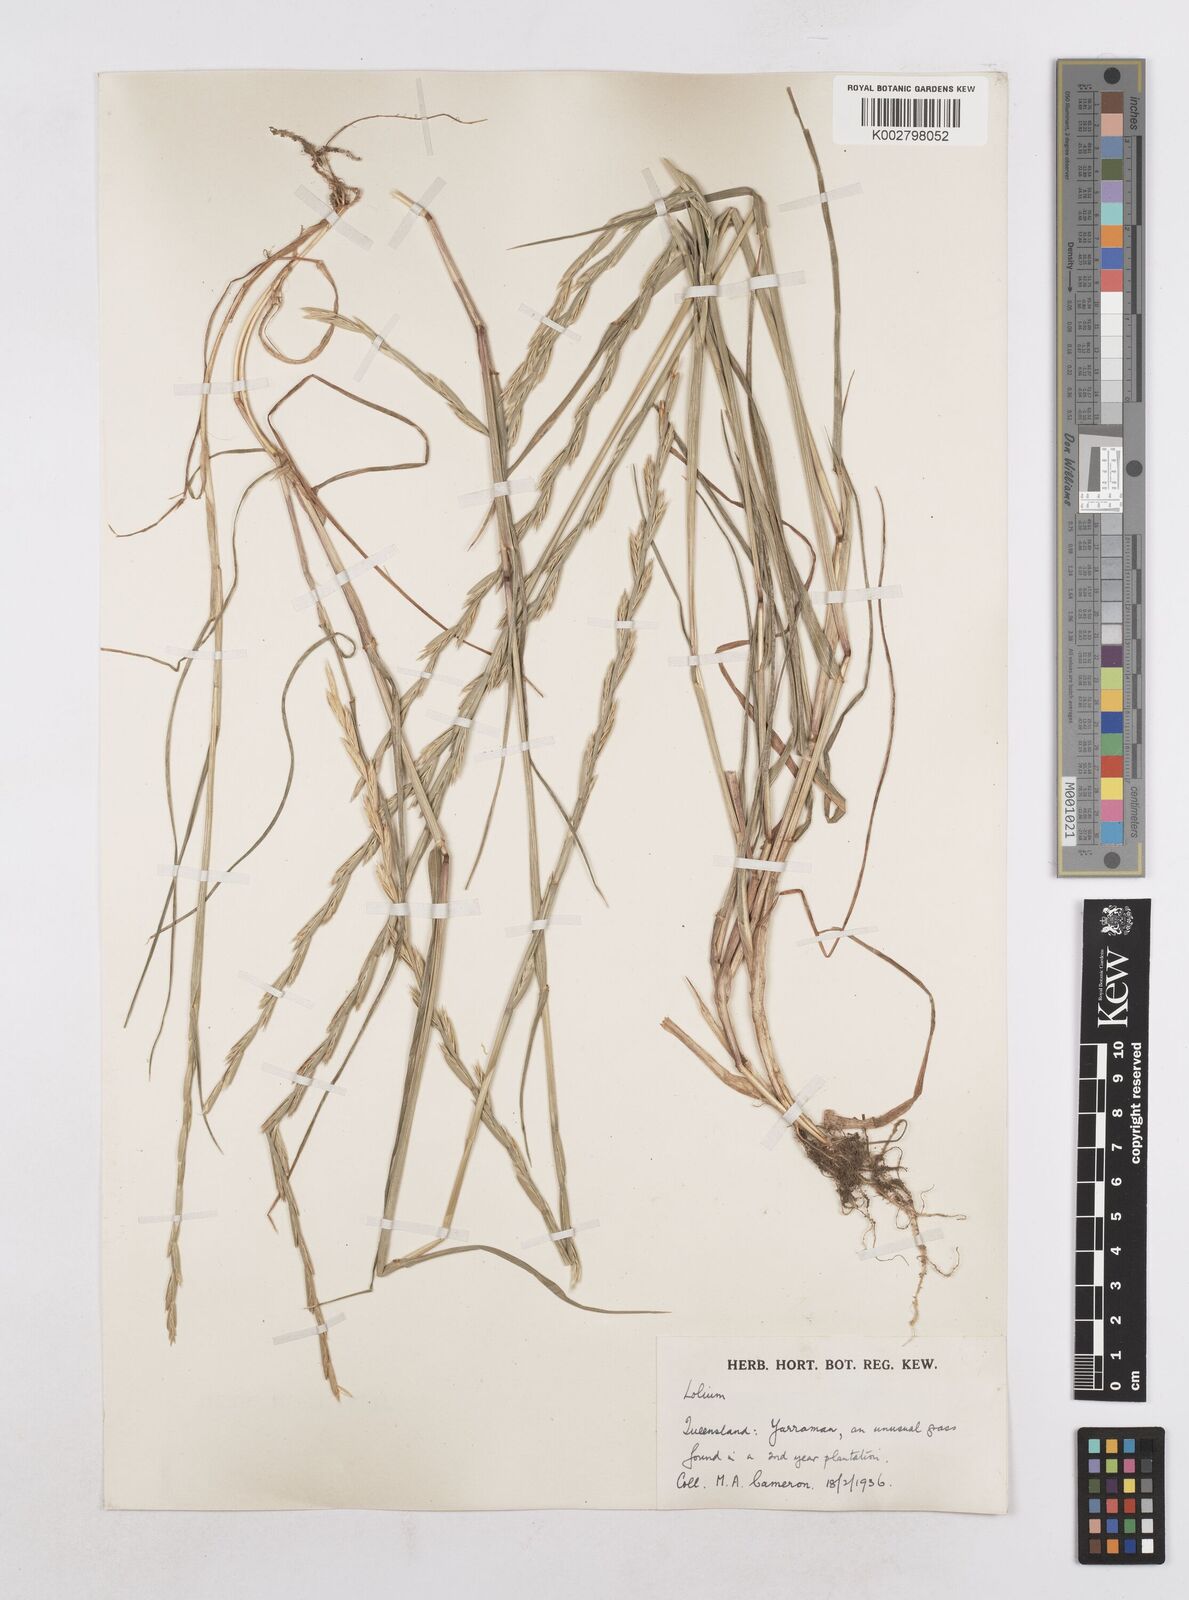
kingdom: Plantae
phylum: Tracheophyta
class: Liliopsida
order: Poales
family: Poaceae
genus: Lolium
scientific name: Lolium
